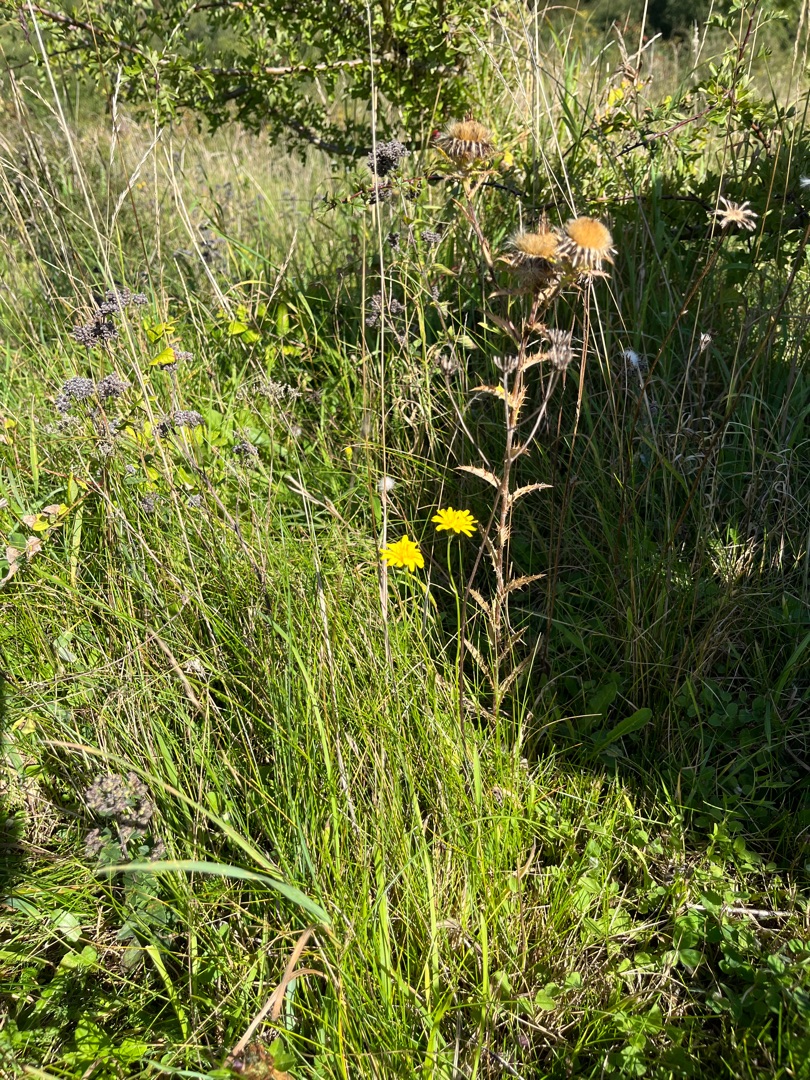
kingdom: Plantae
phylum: Tracheophyta
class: Magnoliopsida
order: Asterales
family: Asteraceae
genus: Carlina
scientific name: Carlina biebersteinii
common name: Langbladet bakketidsel
